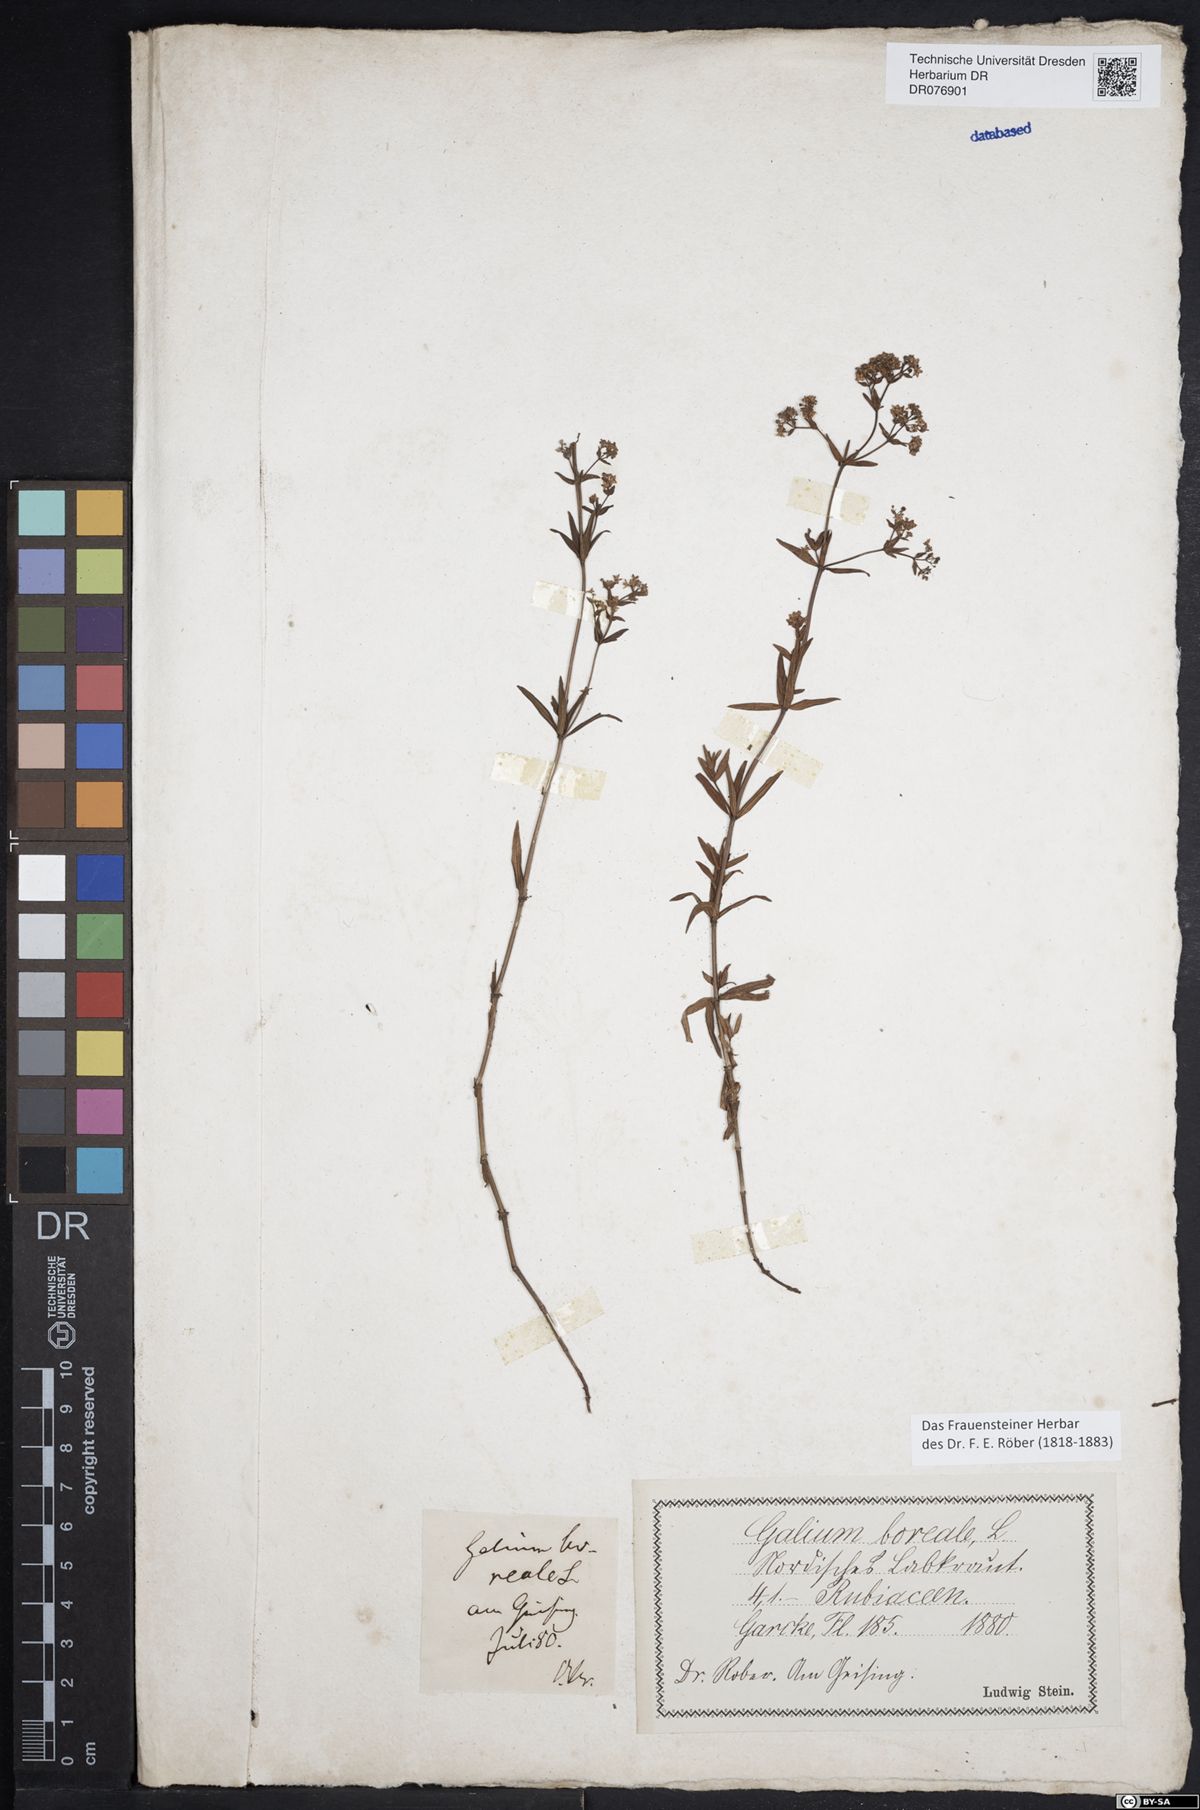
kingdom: Plantae
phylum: Tracheophyta
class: Magnoliopsida
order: Gentianales
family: Rubiaceae
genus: Galium
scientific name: Galium boreale
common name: Northern bedstraw
